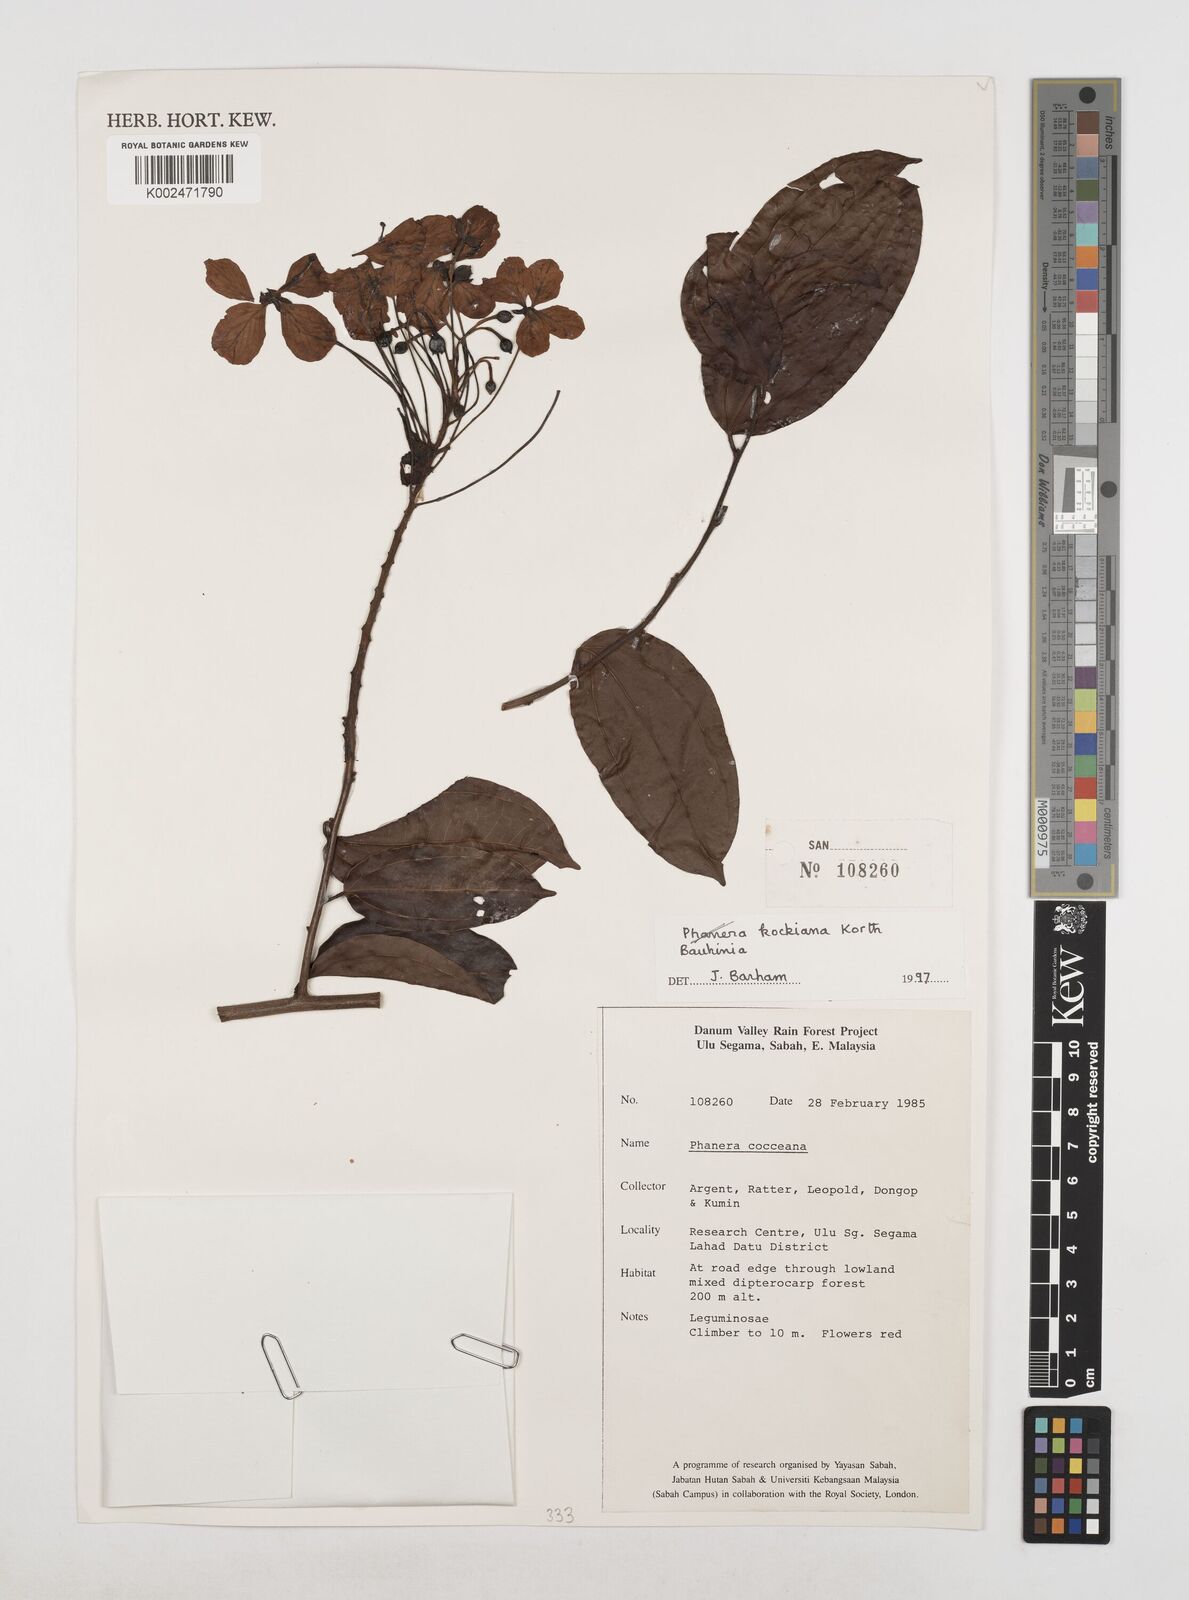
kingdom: Plantae
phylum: Tracheophyta
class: Magnoliopsida
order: Fabales
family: Fabaceae
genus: Phanera
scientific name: Phanera kockiana
